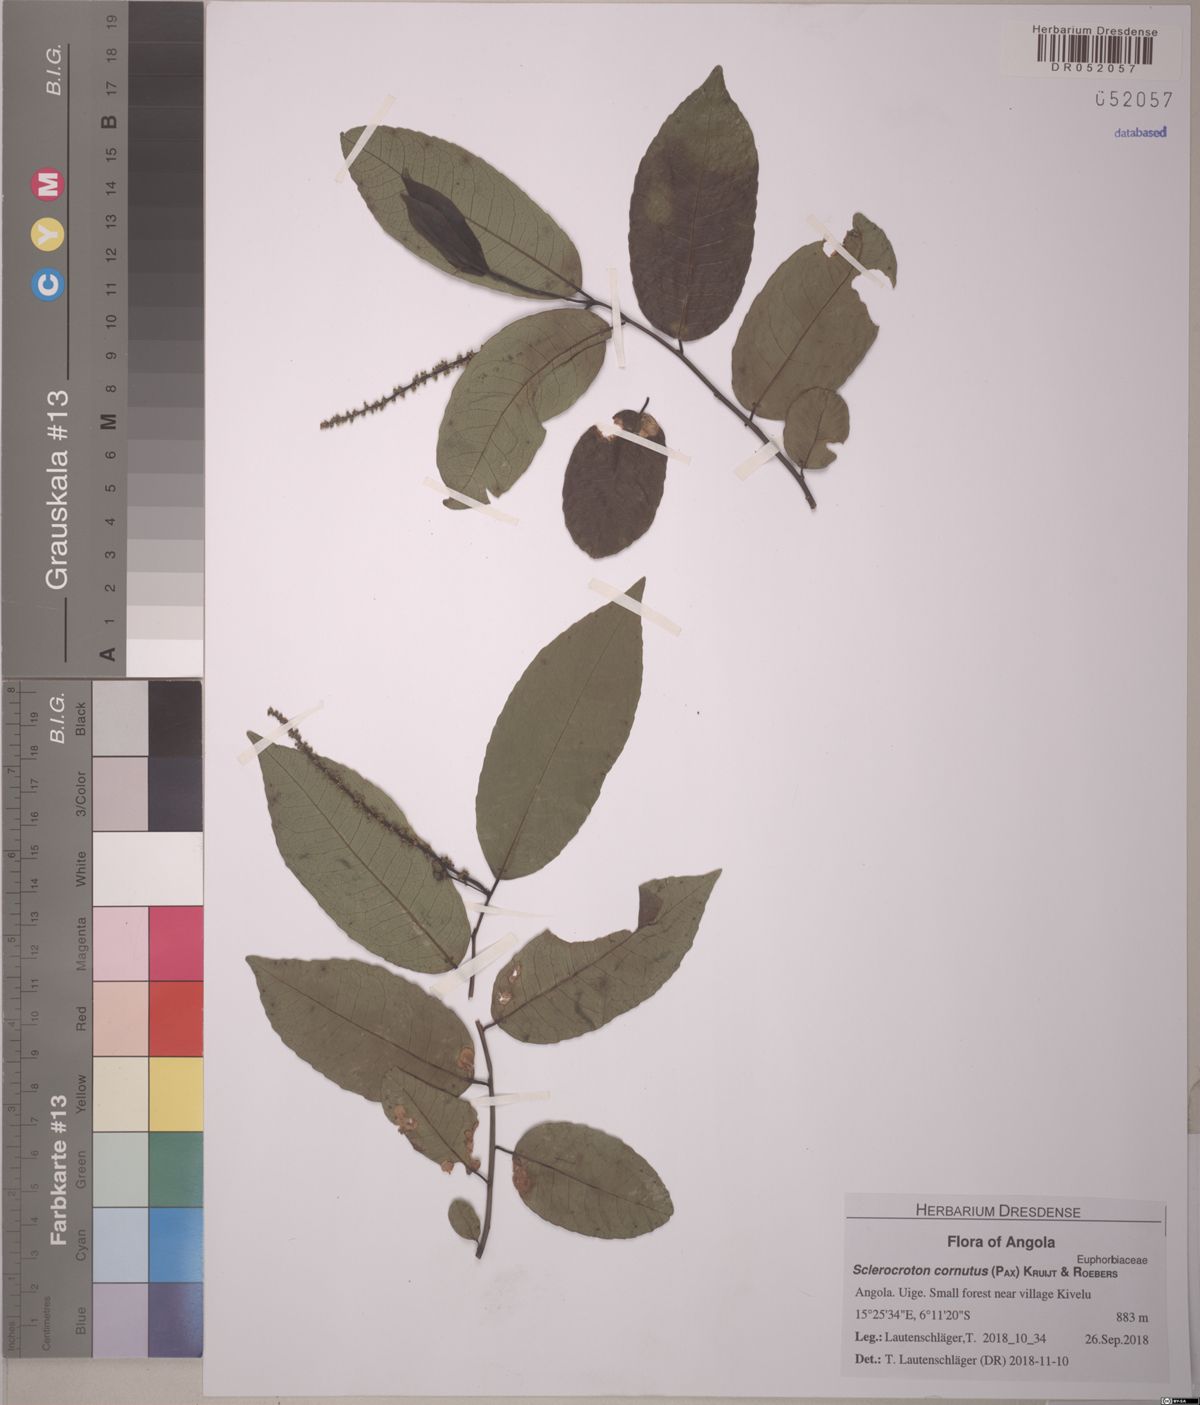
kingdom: Plantae
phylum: Tracheophyta
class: Magnoliopsida
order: Malpighiales
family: Euphorbiaceae
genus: Sclerocroton
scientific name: Sclerocroton cornutus
